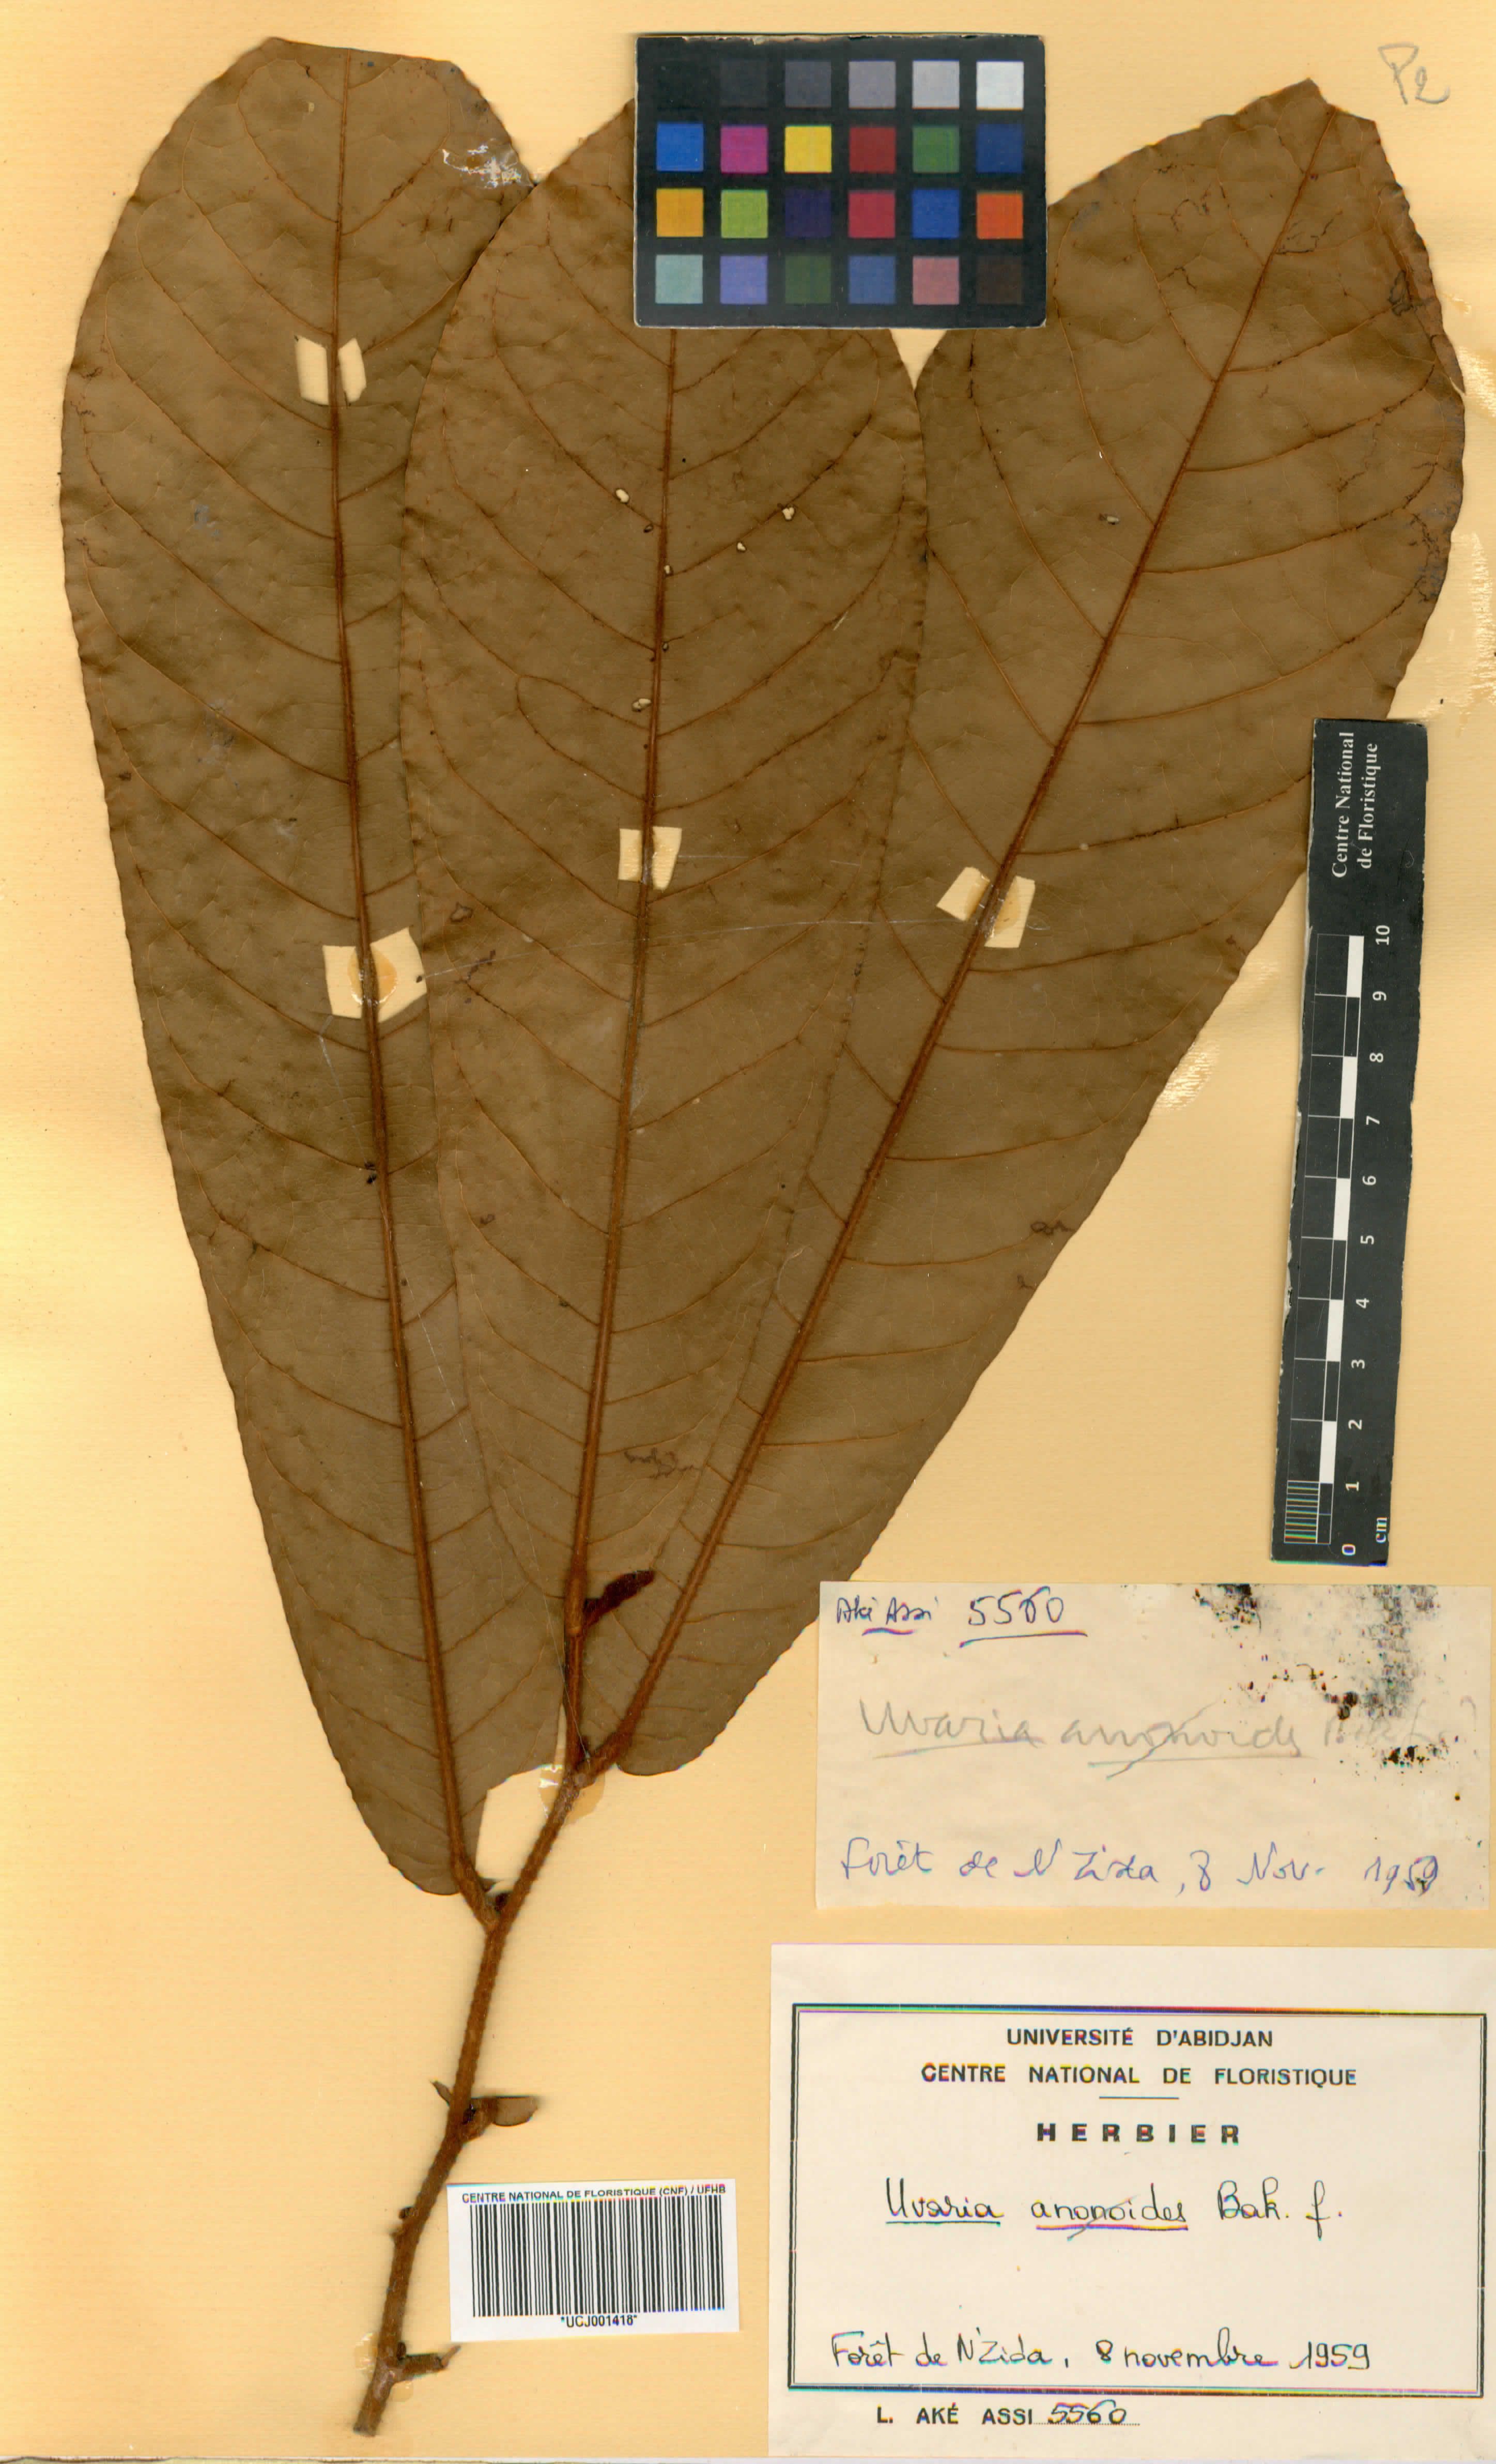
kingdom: Plantae
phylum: Tracheophyta
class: Magnoliopsida
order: Magnoliales
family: Annonaceae
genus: Uvaria
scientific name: Uvaria anonoides
